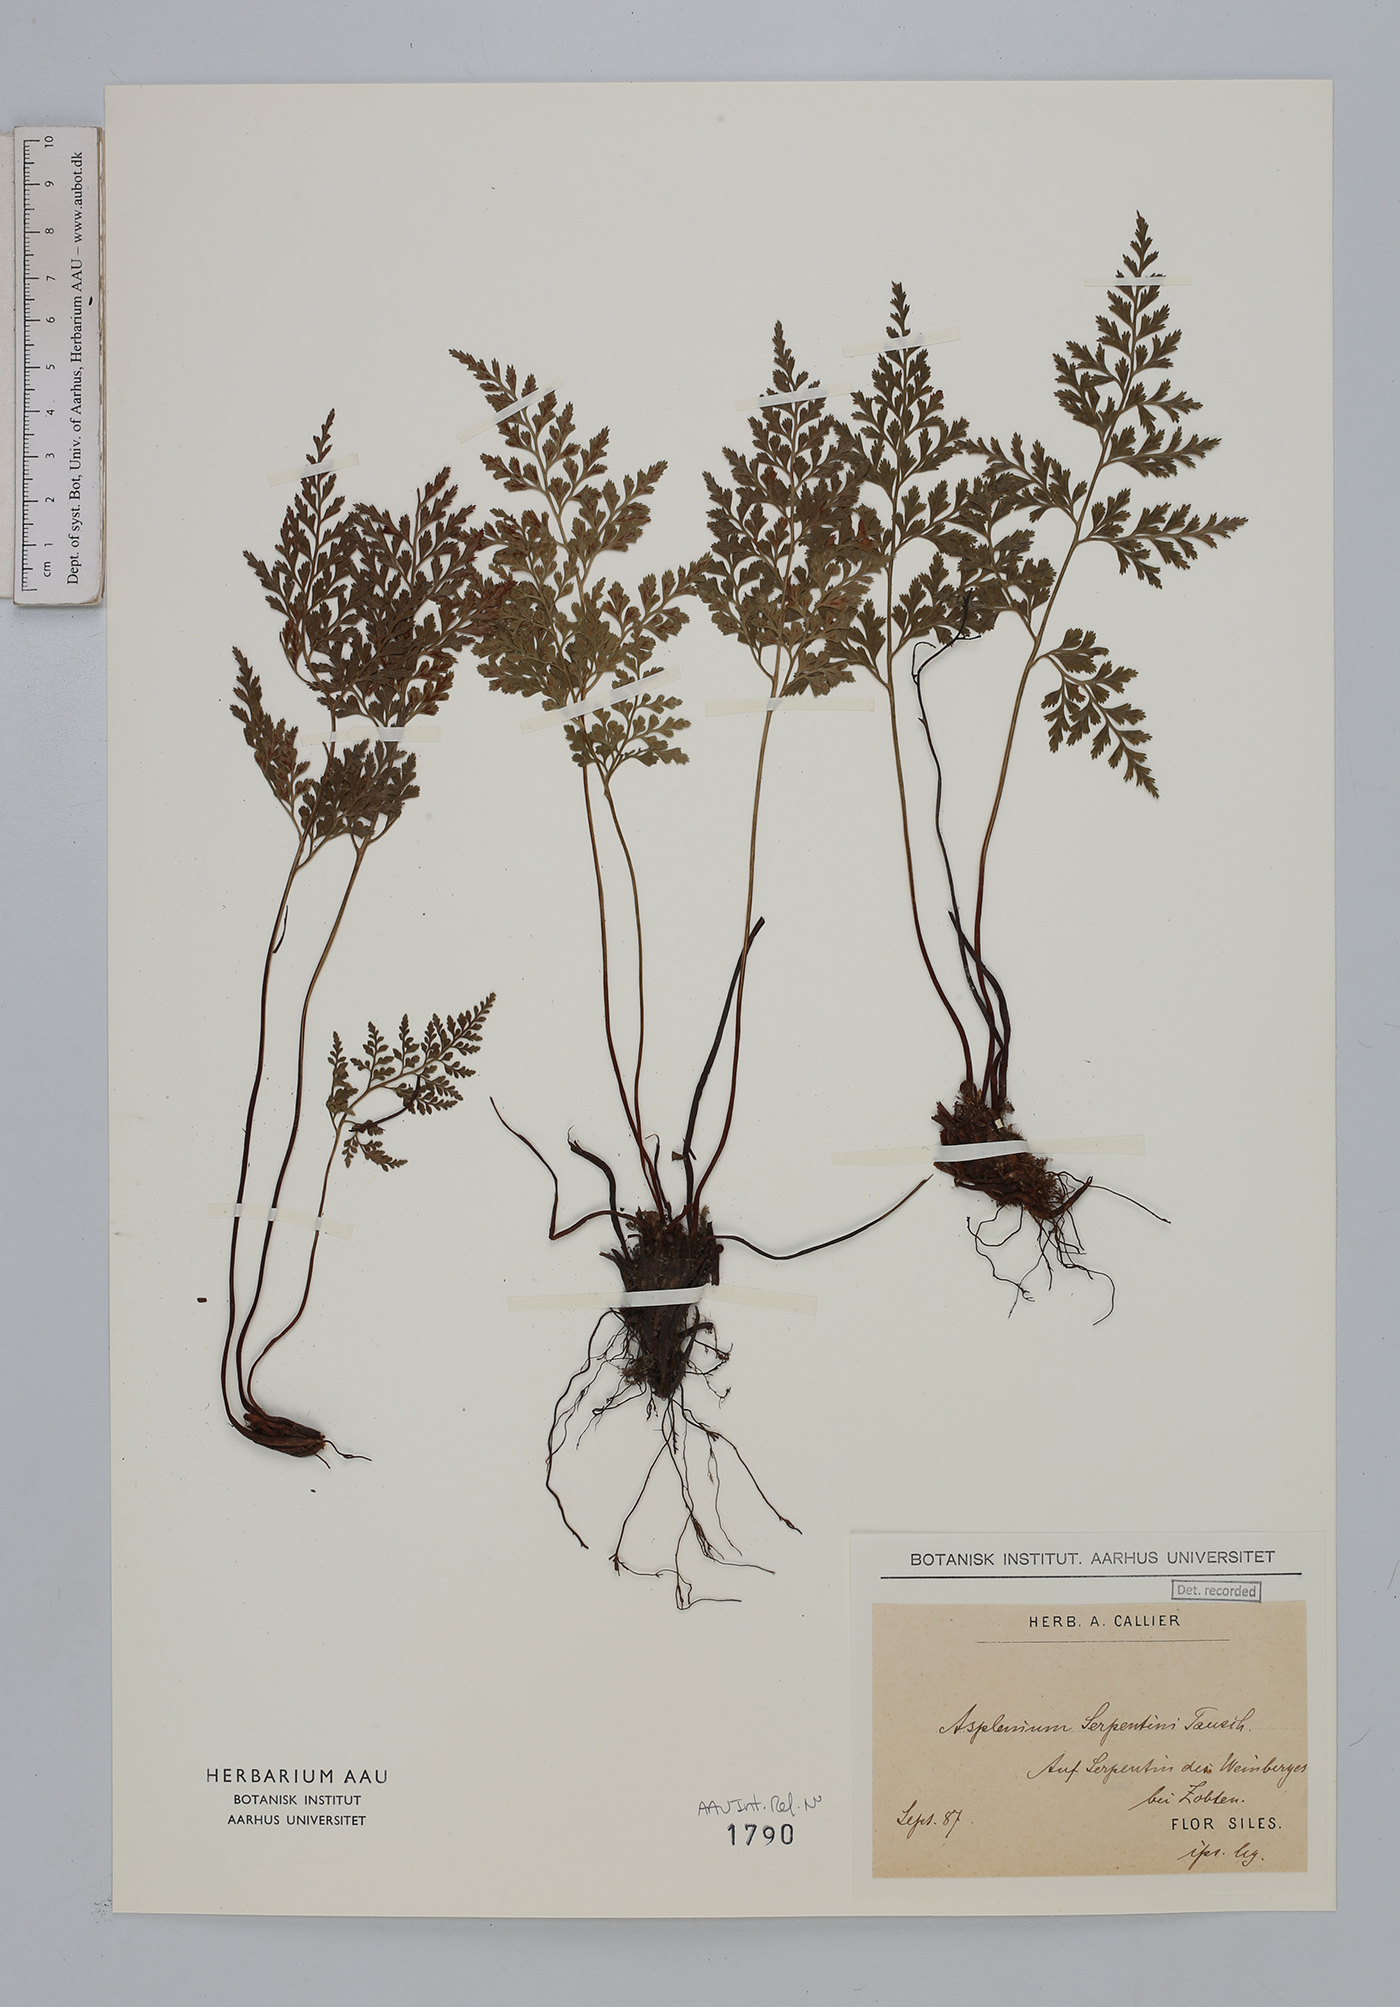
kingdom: Plantae
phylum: Tracheophyta
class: Polypodiopsida
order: Polypodiales
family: Aspleniaceae
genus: Asplenium
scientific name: Asplenium cuneifolium
